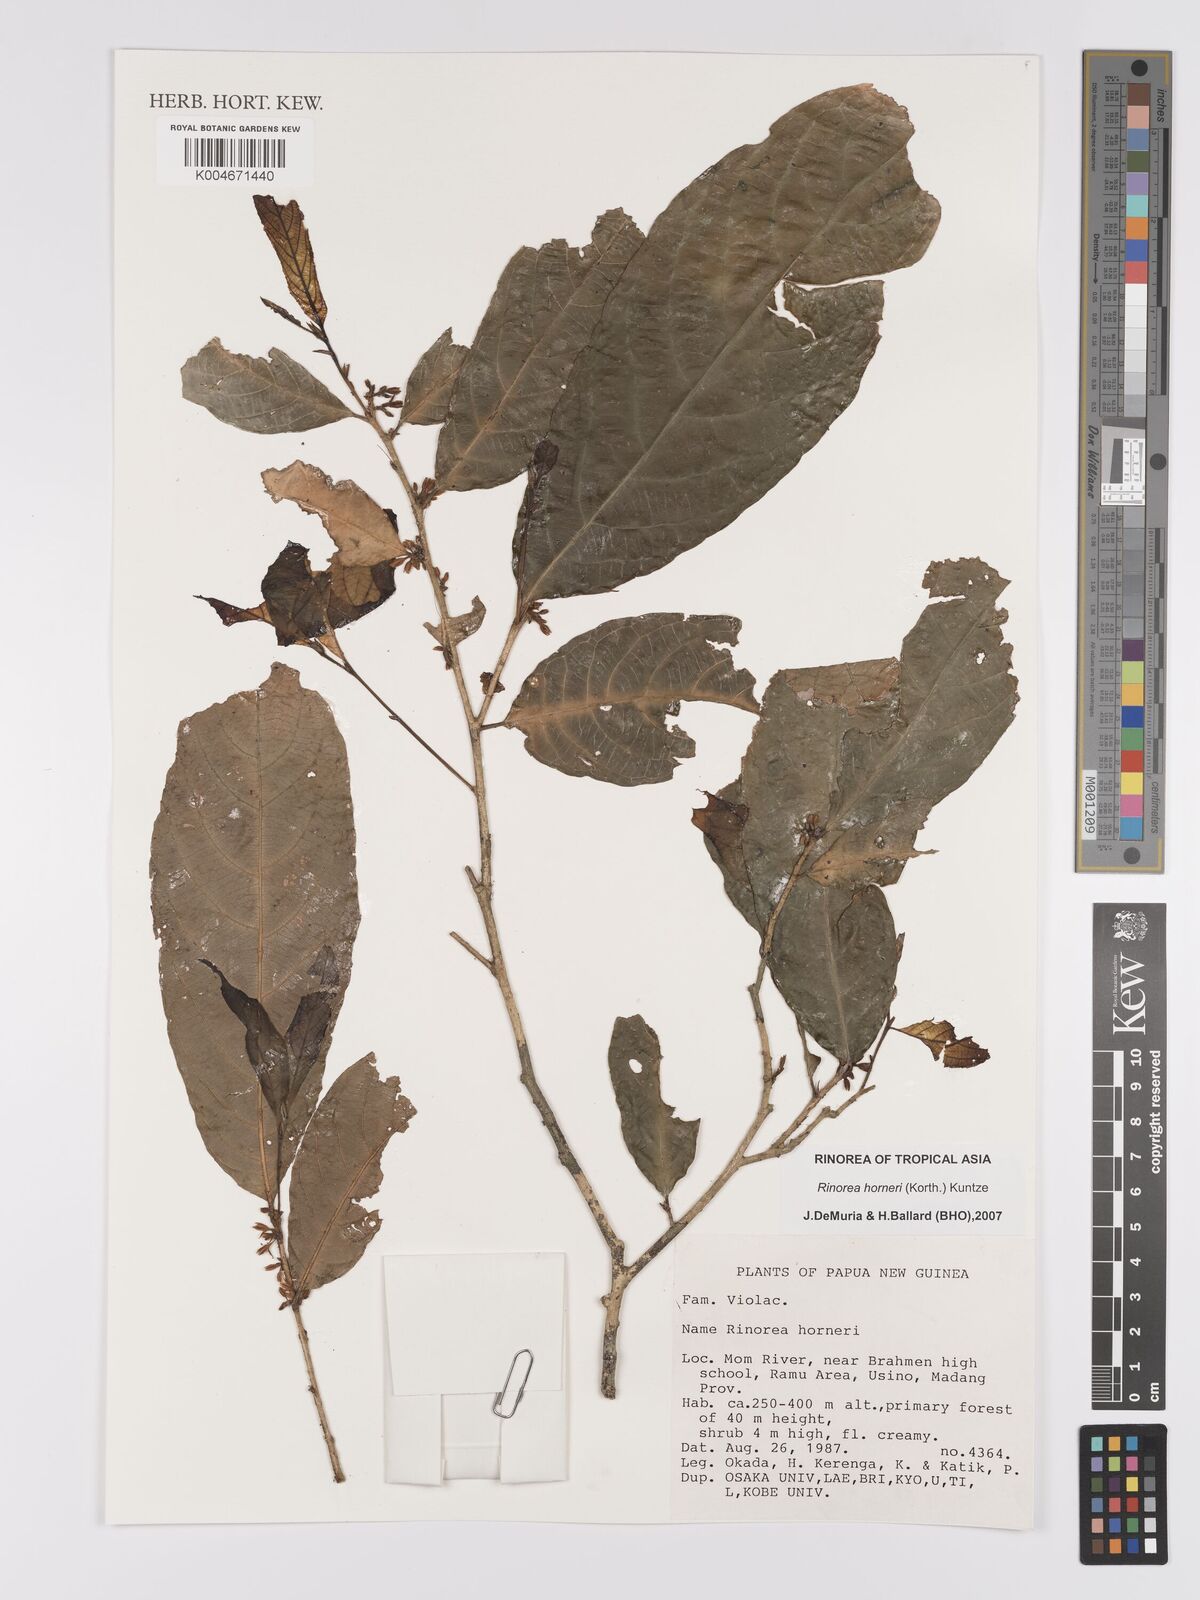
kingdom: Plantae
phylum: Tracheophyta
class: Magnoliopsida
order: Malpighiales
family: Violaceae
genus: Rinorea
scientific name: Rinorea horneri
